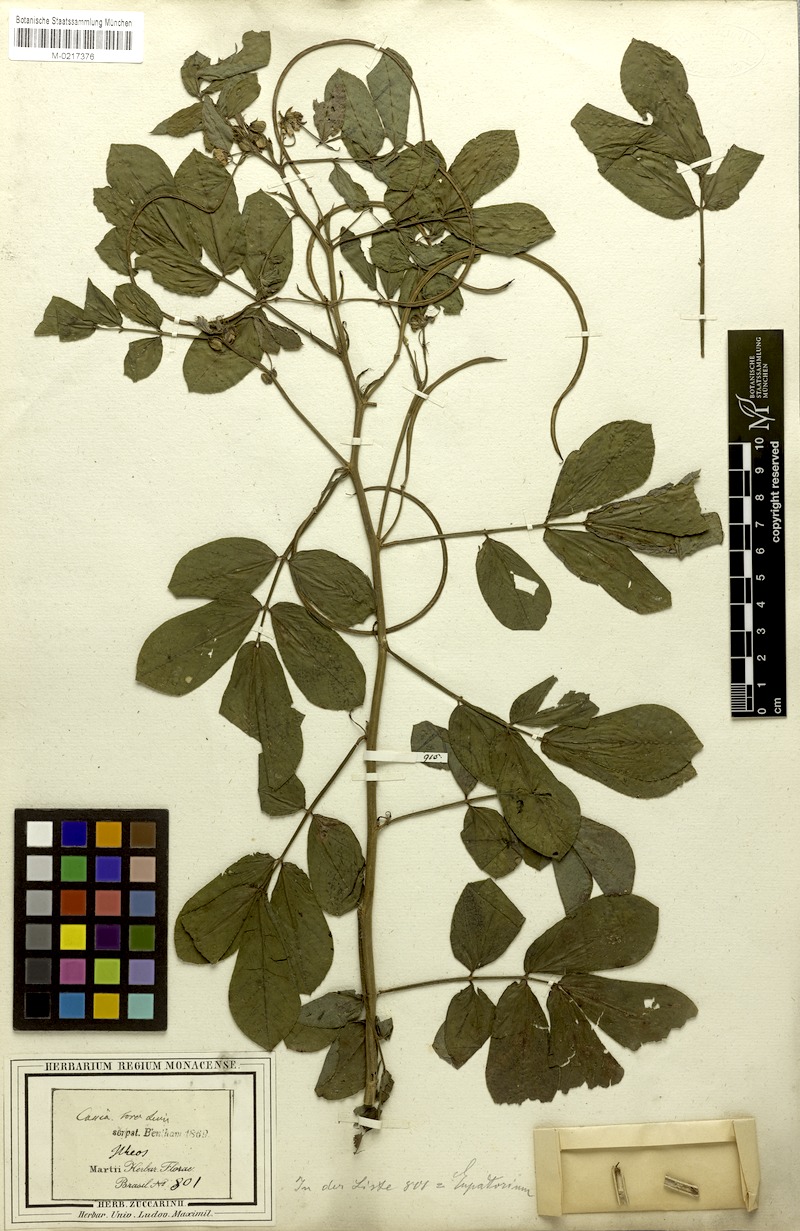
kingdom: Plantae
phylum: Tracheophyta
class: Magnoliopsida
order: Fabales
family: Fabaceae
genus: Senna
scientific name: Senna obtusifolia
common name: Java-bean
